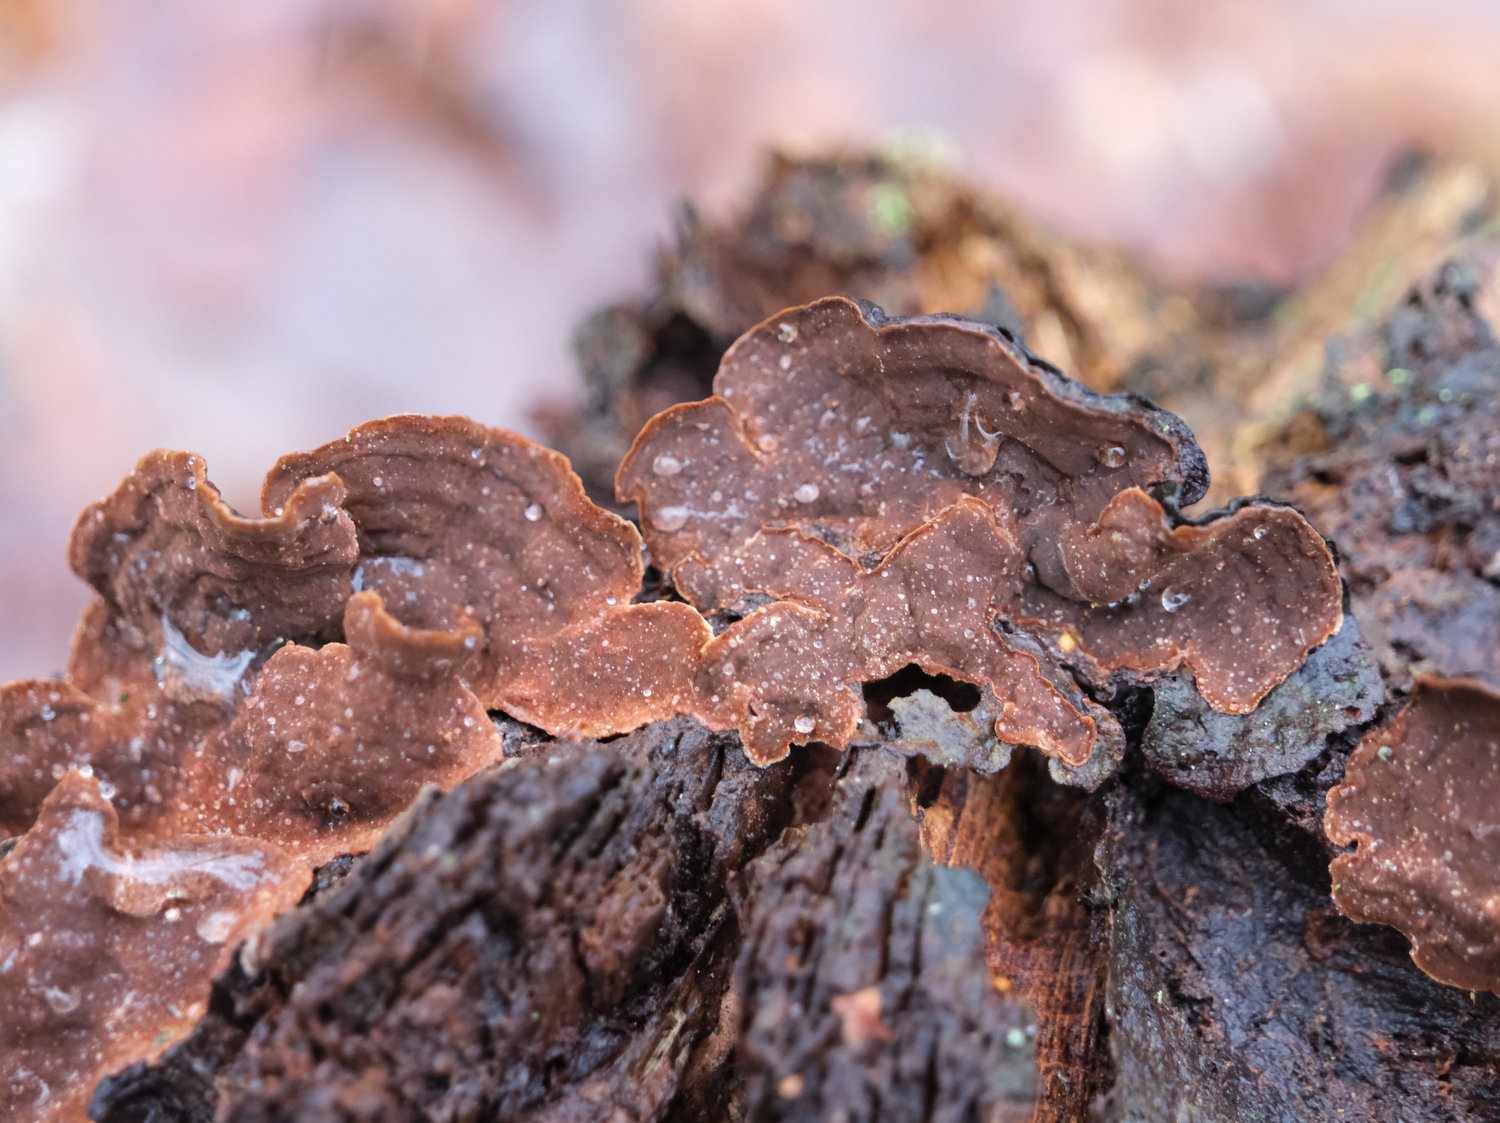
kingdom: Fungi
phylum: Basidiomycota
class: Agaricomycetes
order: Hymenochaetales
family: Hymenochaetaceae
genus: Hymenochaete
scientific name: Hymenochaete rubiginosa
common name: stiv ruslædersvamp
